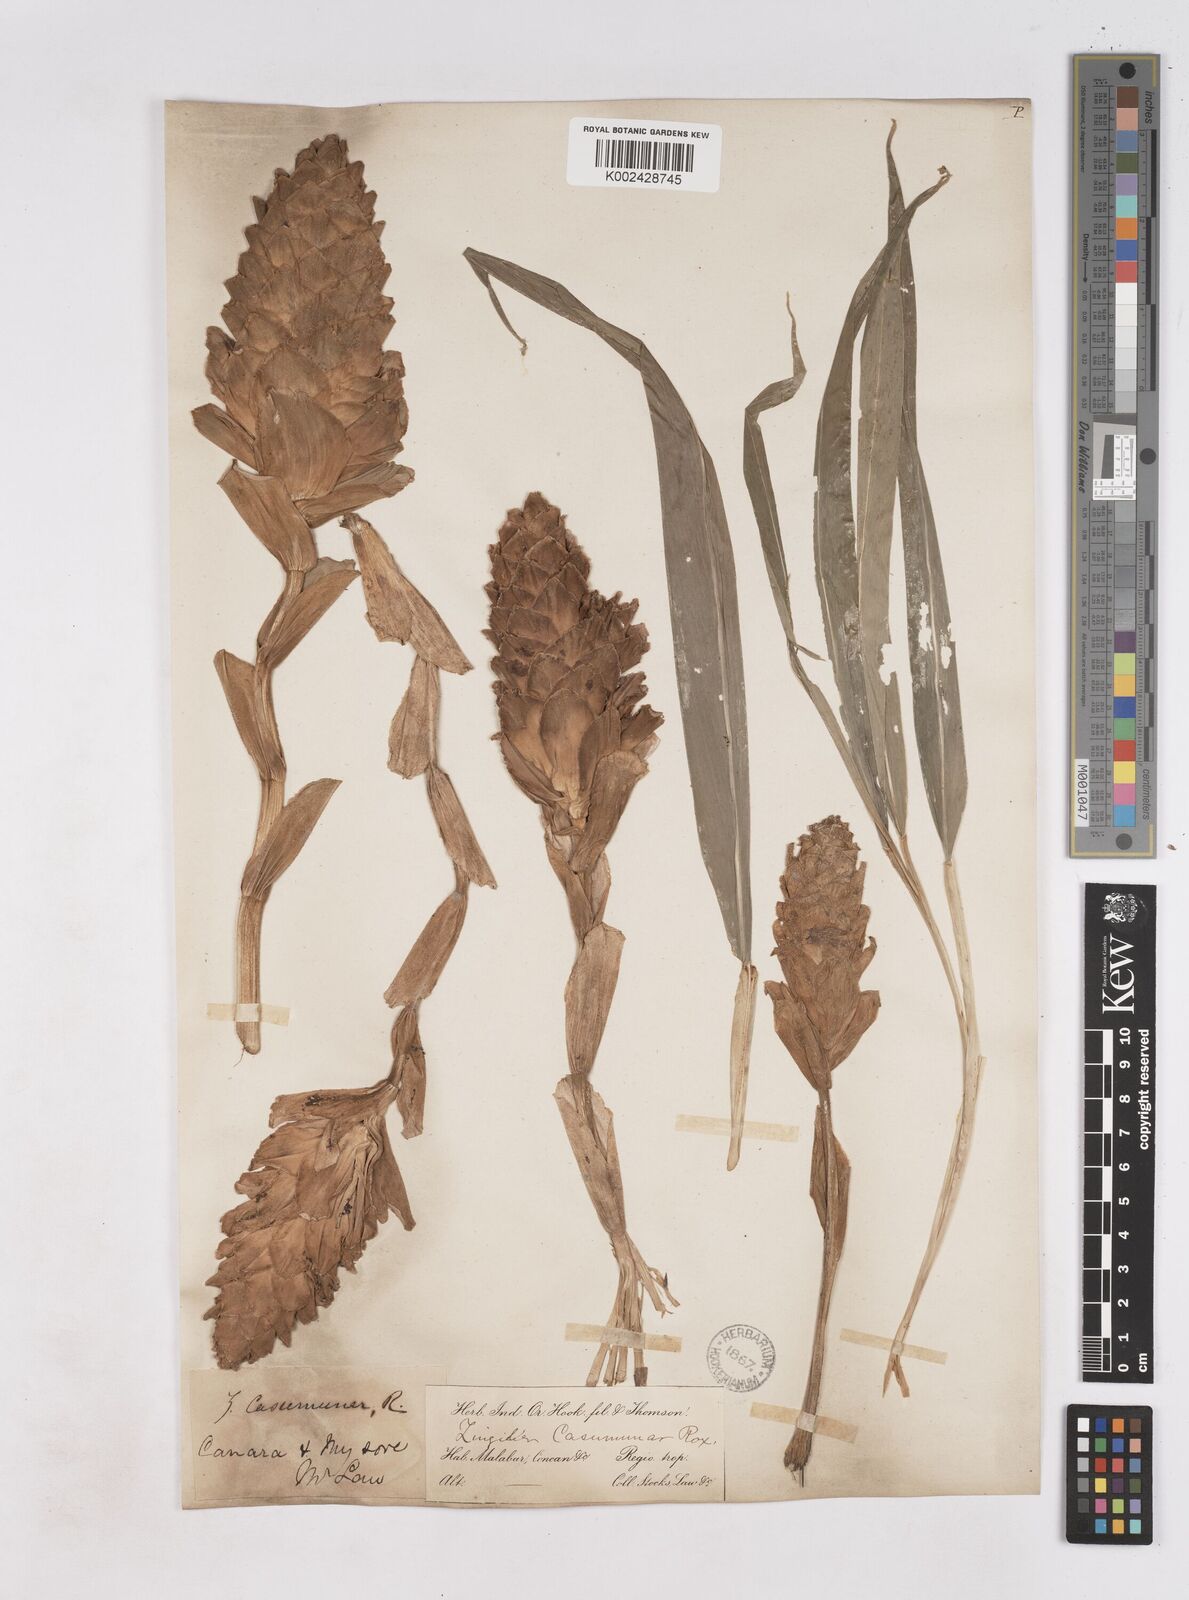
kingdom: Plantae
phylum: Tracheophyta
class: Liliopsida
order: Zingiberales
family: Zingiberaceae
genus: Zingiber
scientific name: Zingiber montanum
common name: Bengal ginger
